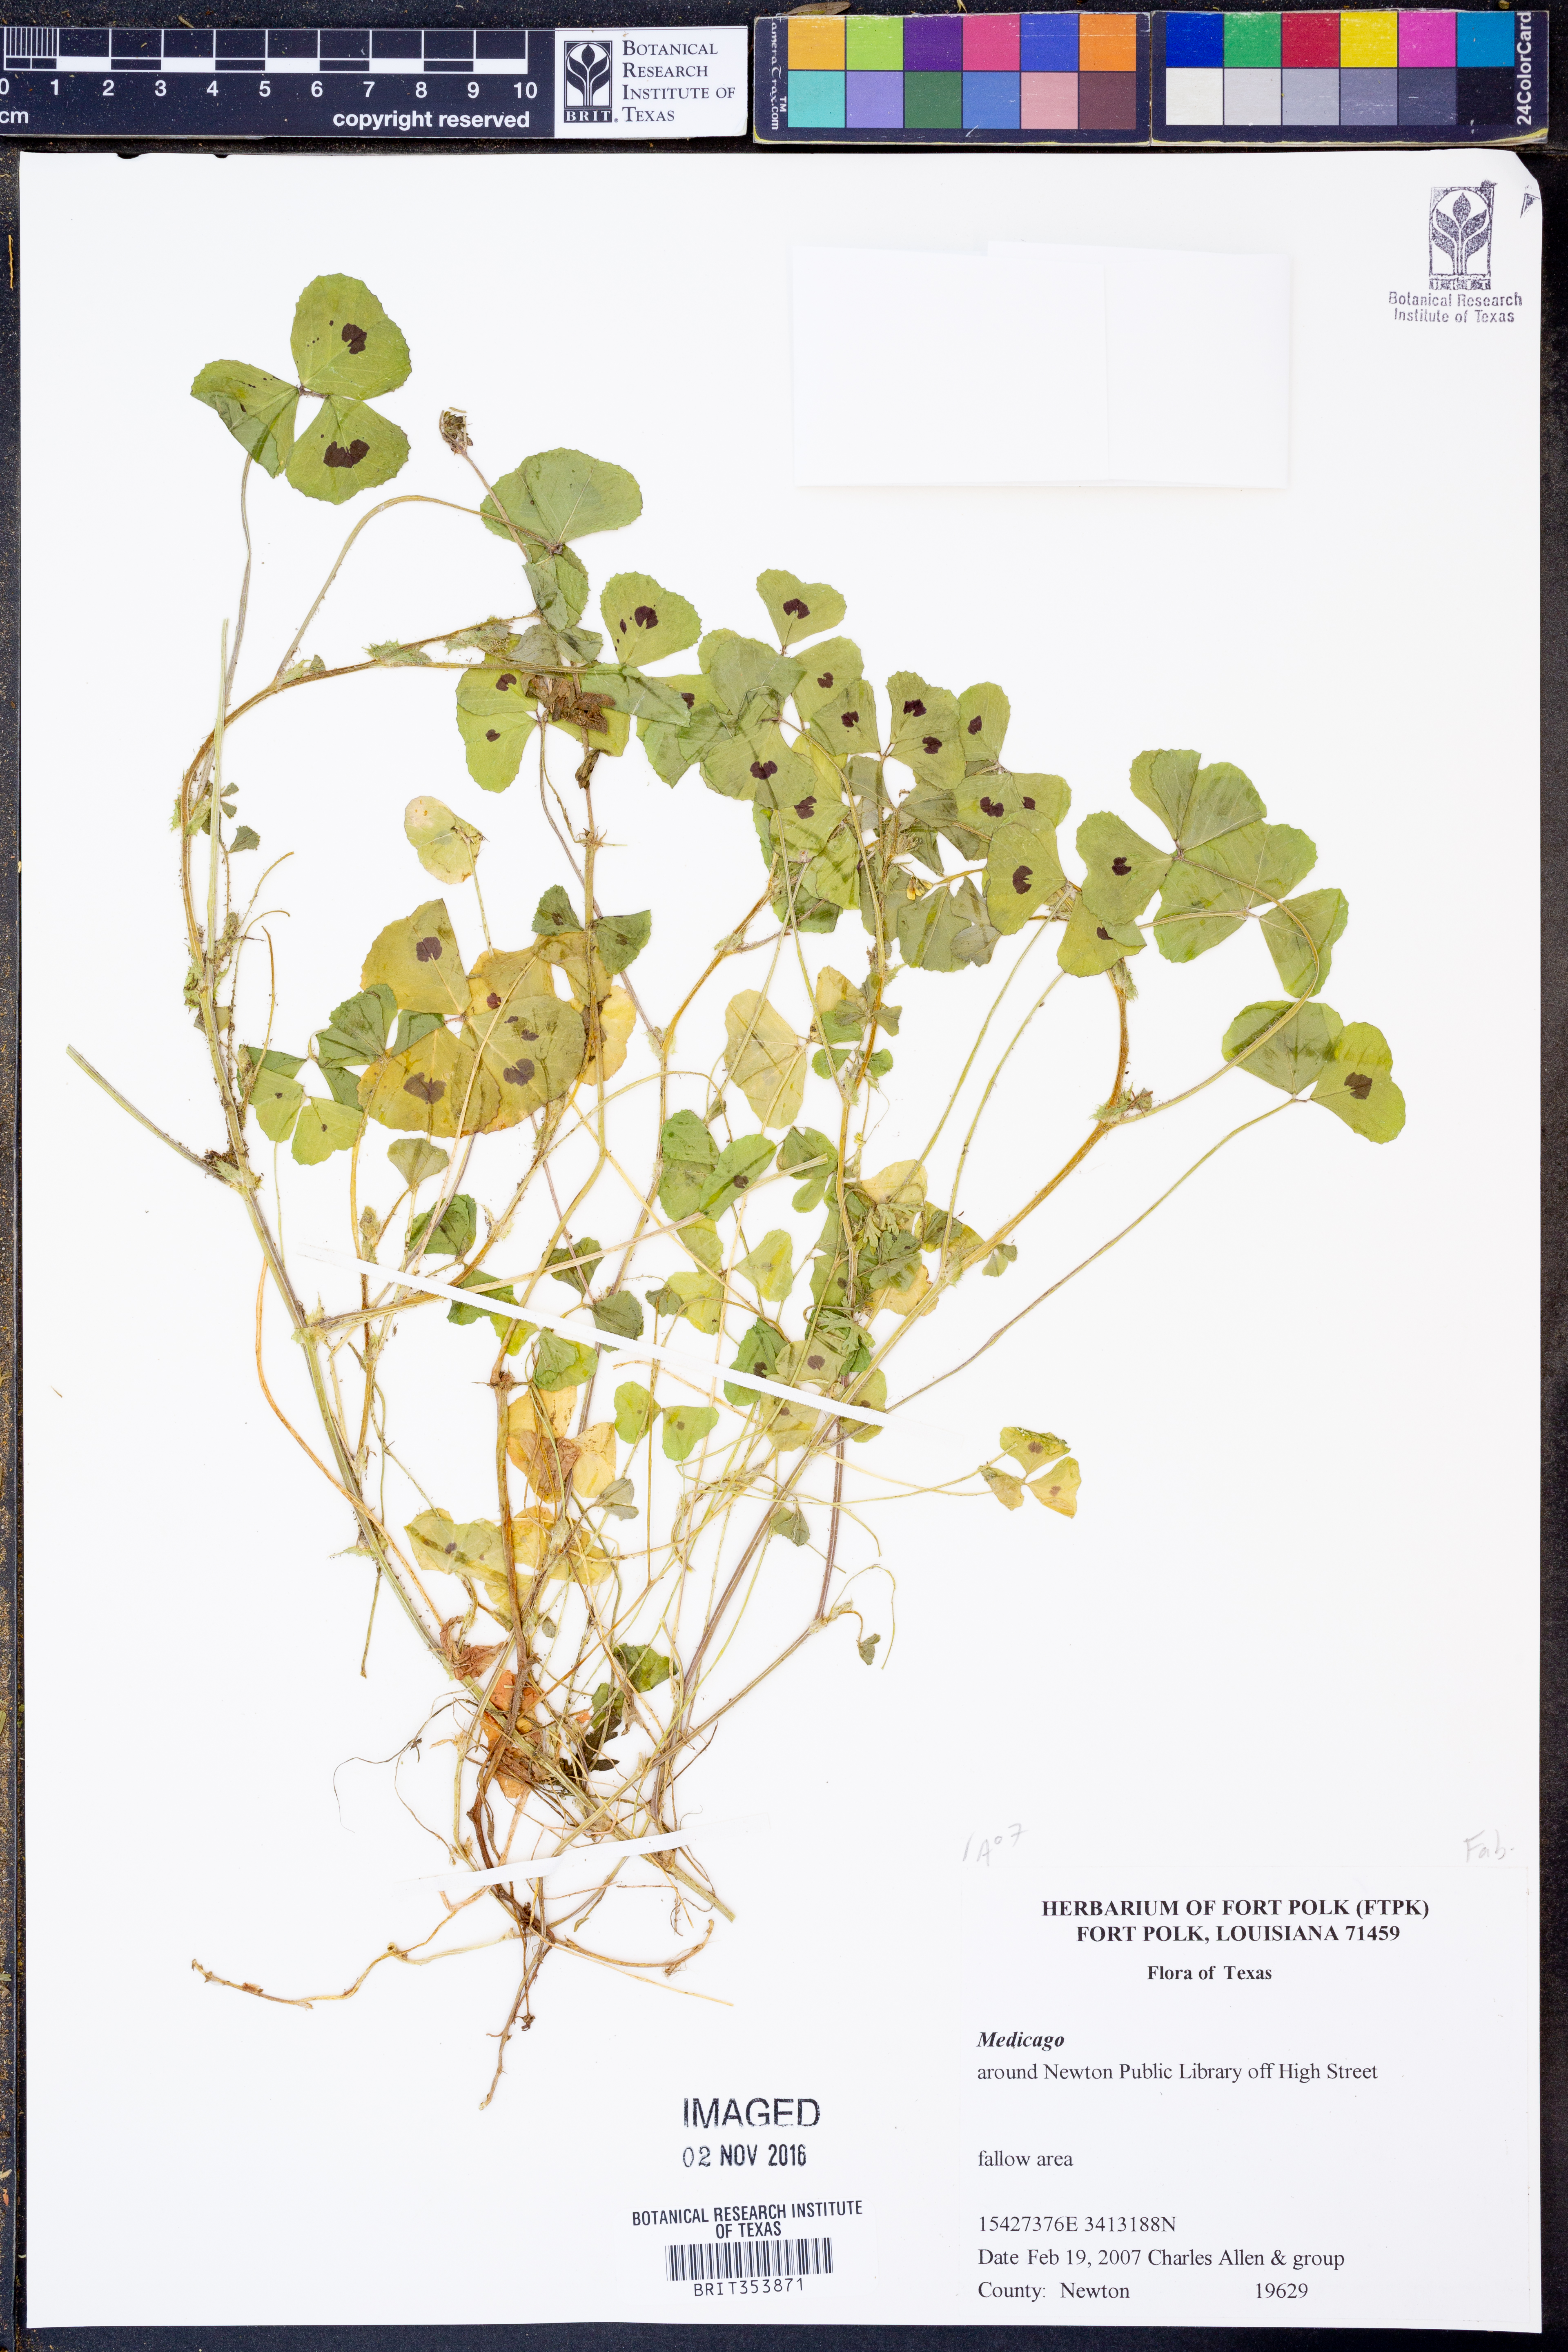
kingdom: Plantae
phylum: Tracheophyta
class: Magnoliopsida
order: Fabales
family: Fabaceae
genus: Medicago
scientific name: Medicago
